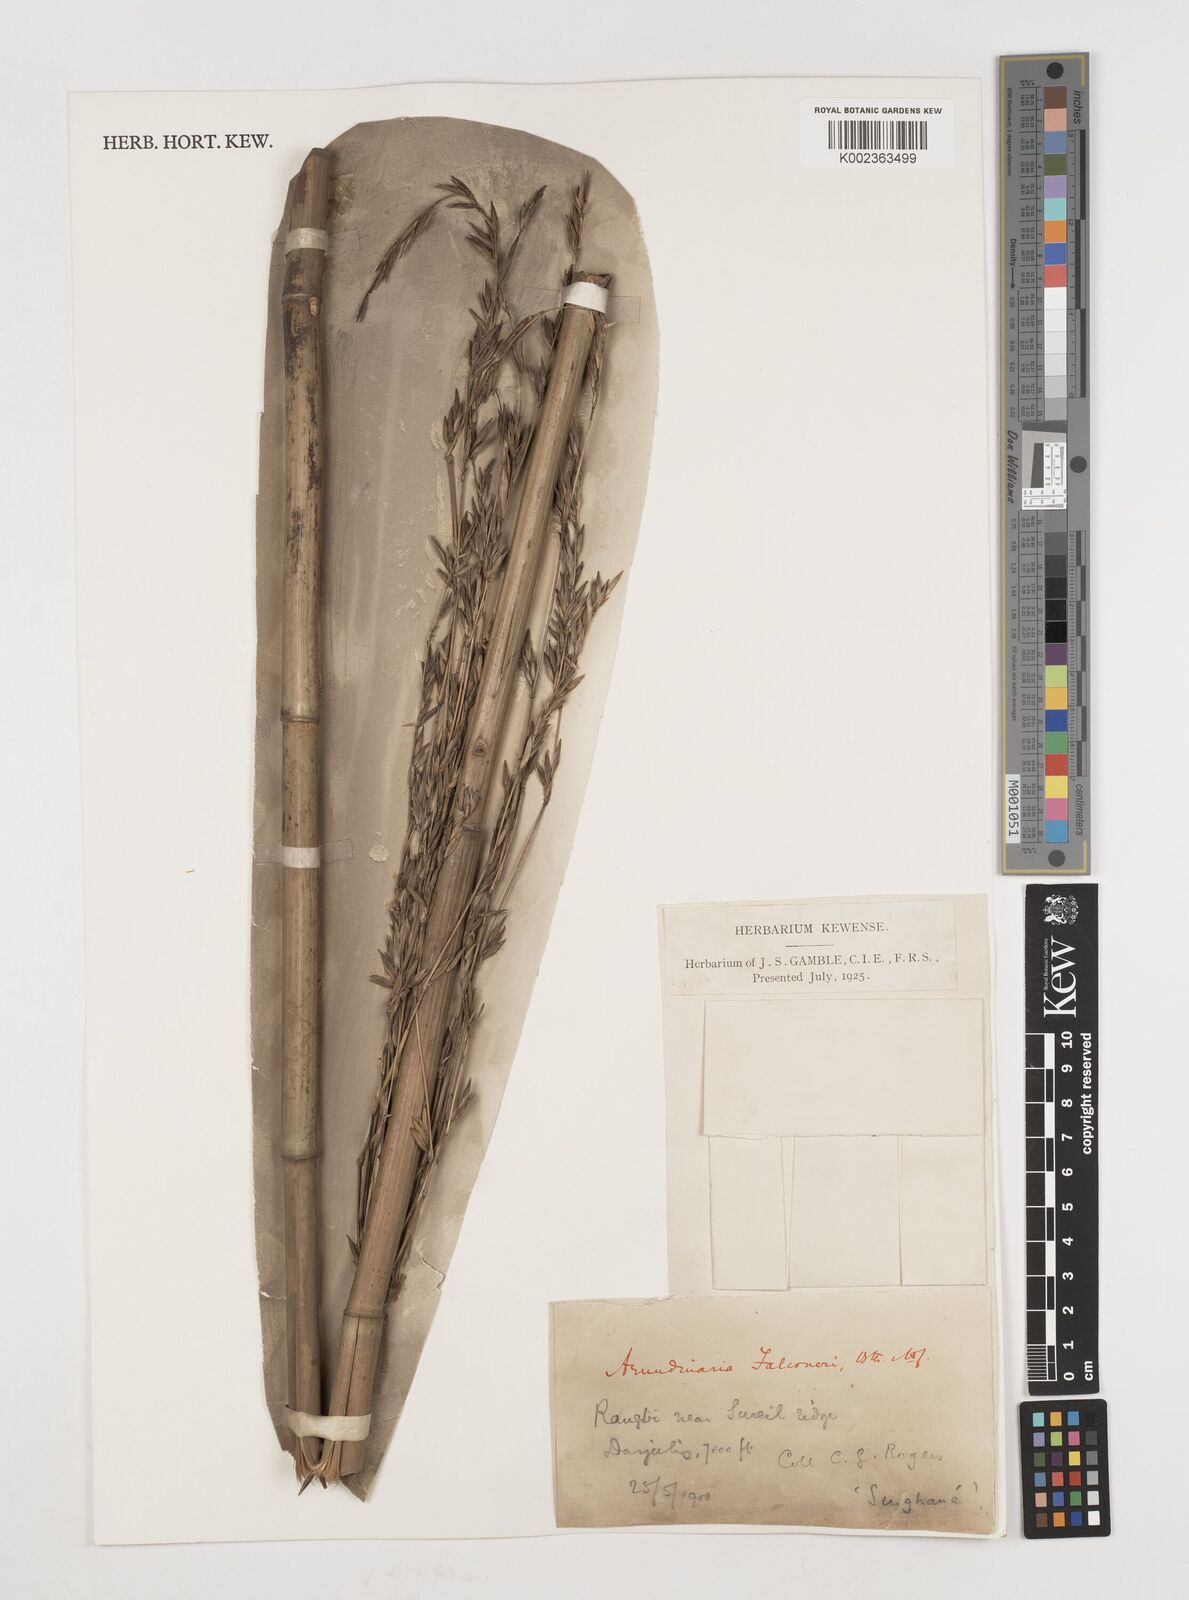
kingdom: Plantae
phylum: Tracheophyta
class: Liliopsida
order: Poales
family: Poaceae
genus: Himalayacalamus
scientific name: Himalayacalamus falconeri
